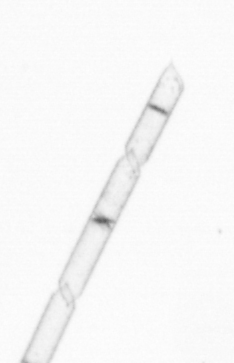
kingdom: Chromista
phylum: Ochrophyta
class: Bacillariophyceae
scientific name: Bacillariophyceae
